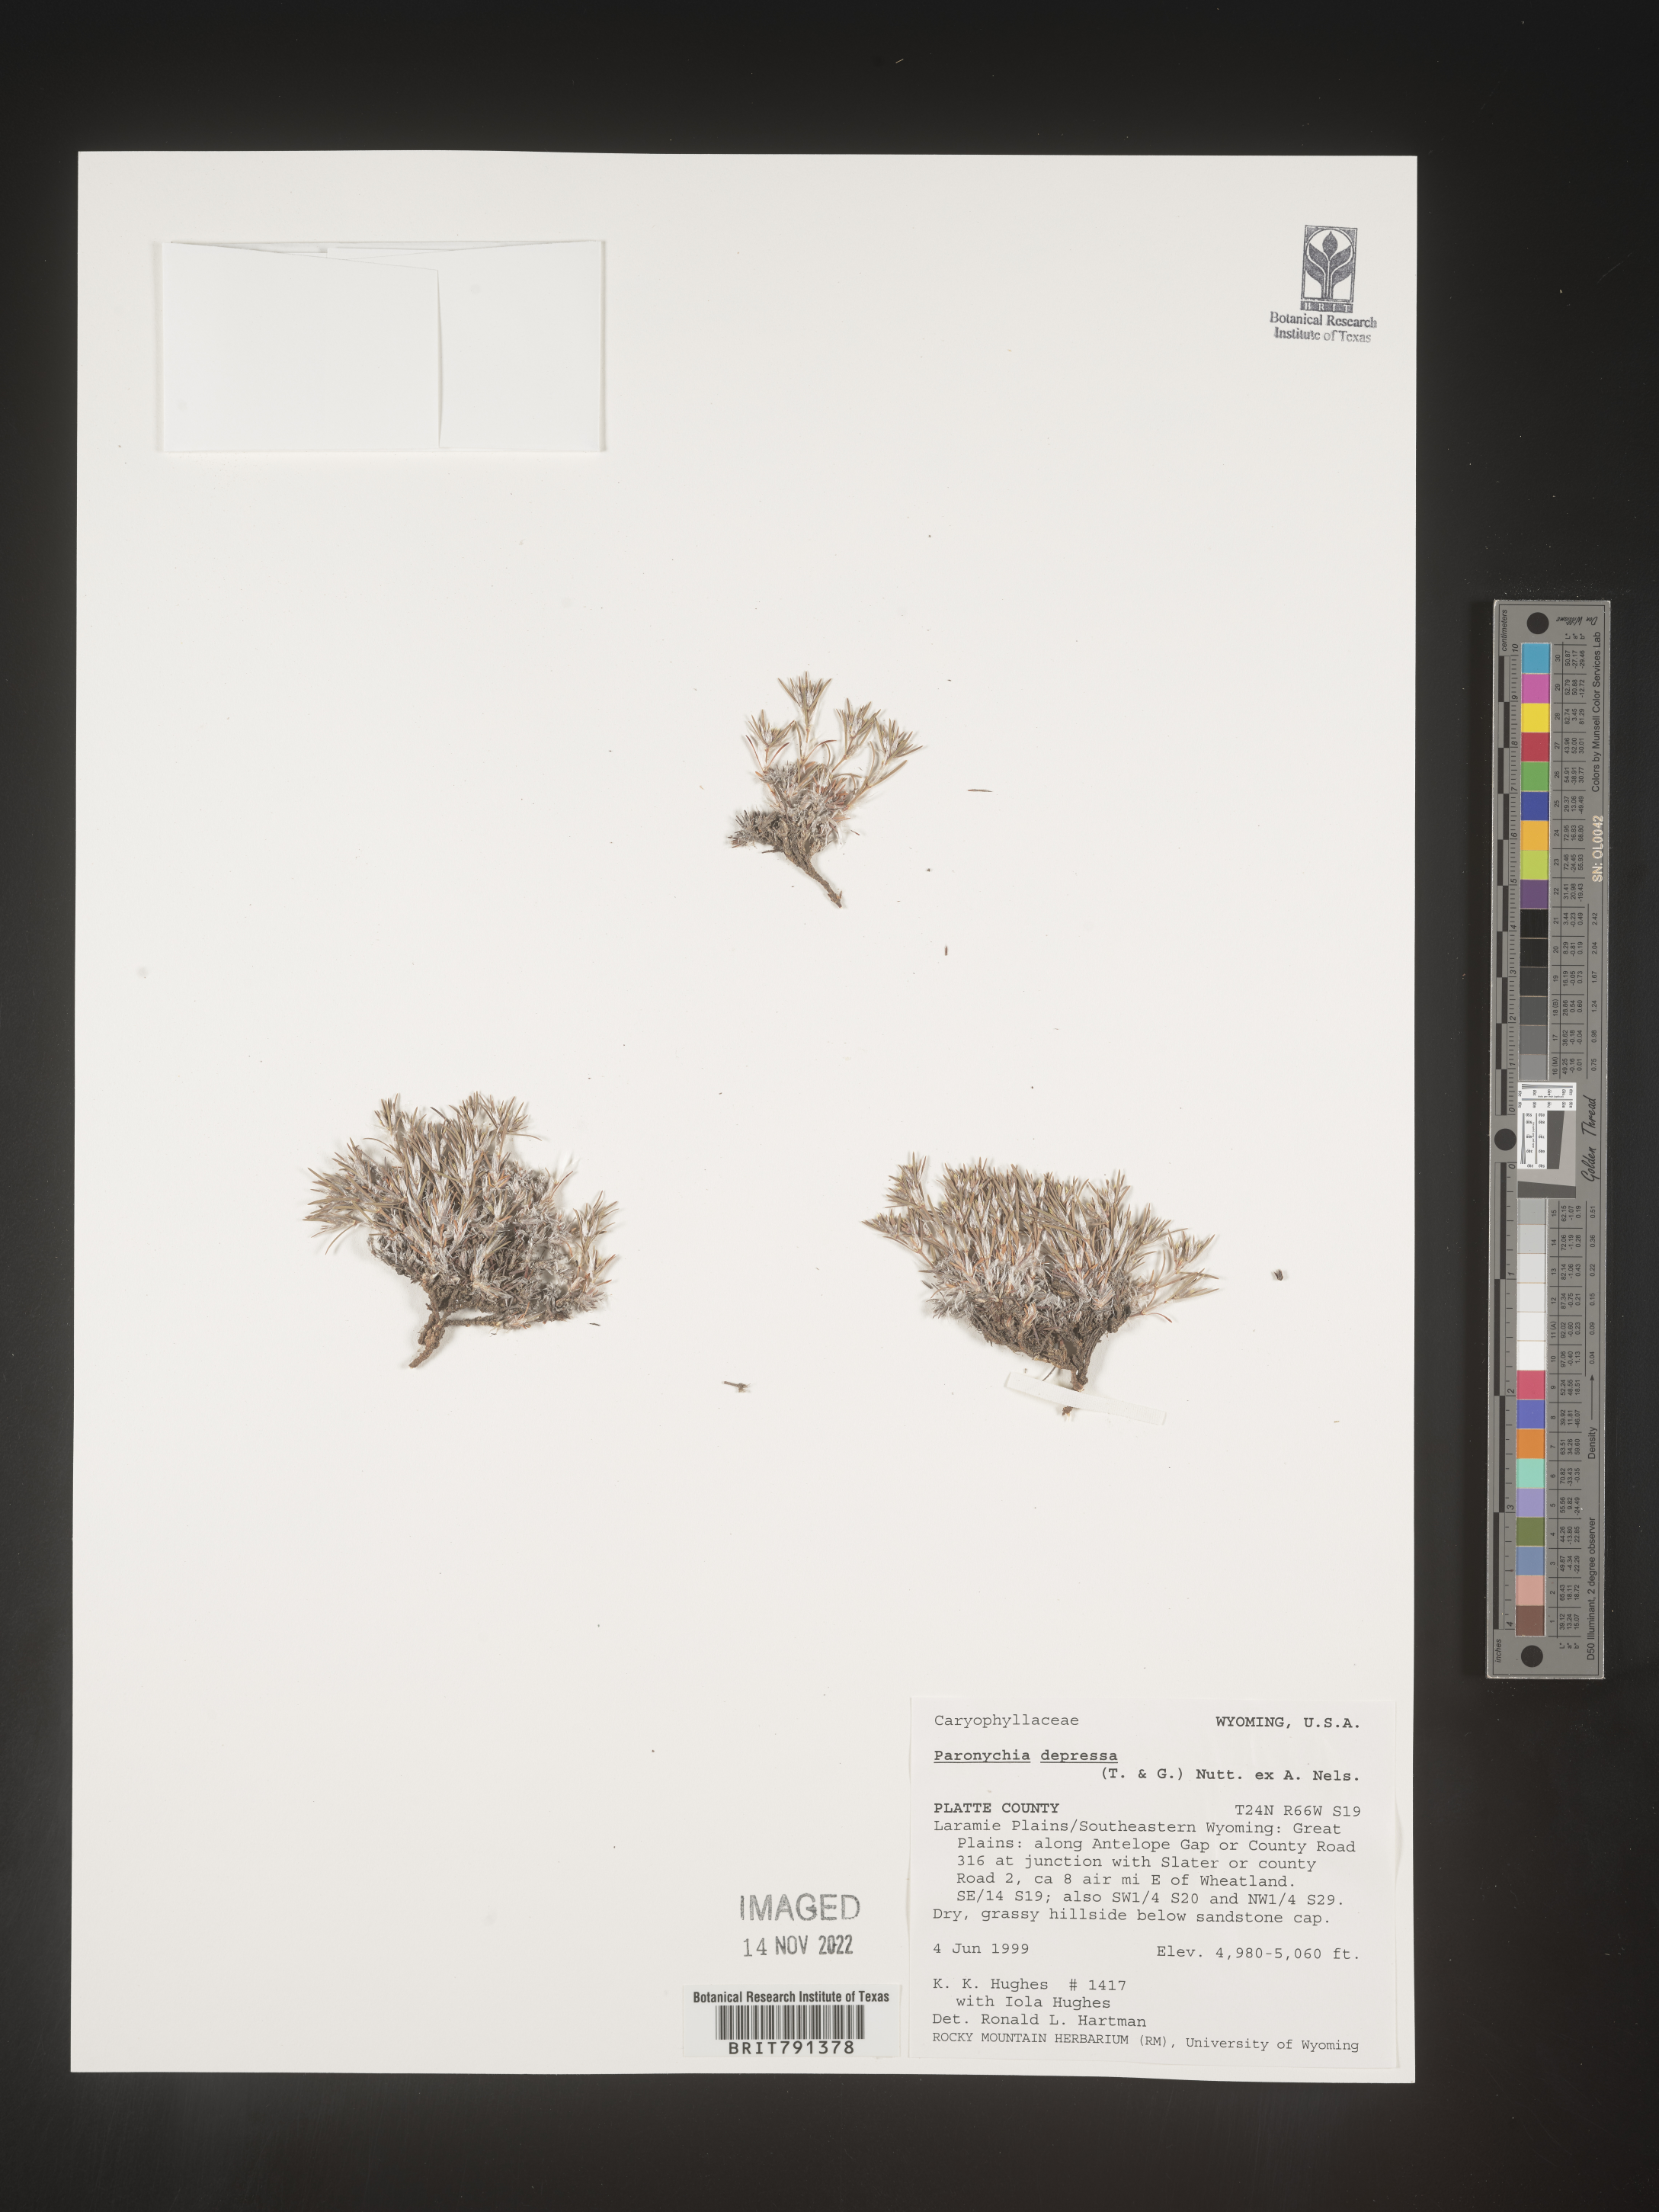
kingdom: Plantae
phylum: Tracheophyta
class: Magnoliopsida
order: Caryophyllales
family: Caryophyllaceae
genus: Paronychia
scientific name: Paronychia
